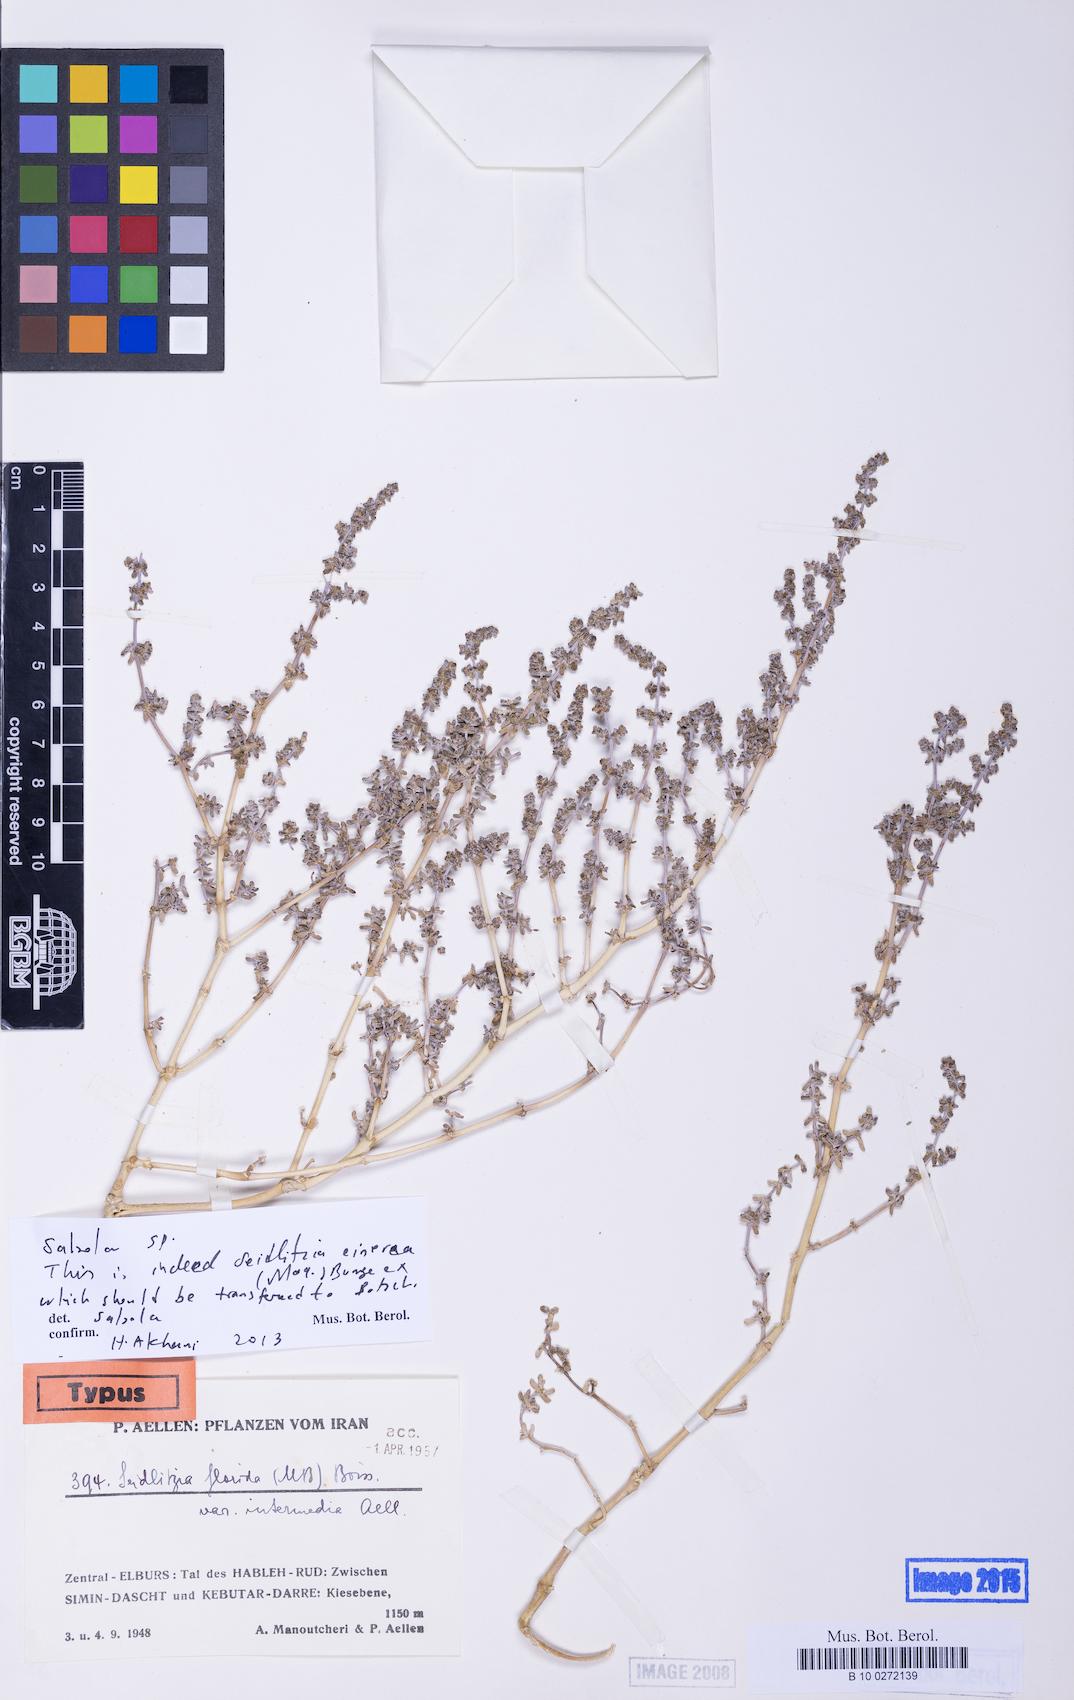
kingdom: Plantae
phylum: Tracheophyta
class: Magnoliopsida
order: Caryophyllales
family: Amaranthaceae
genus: Soda
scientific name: Soda florida
